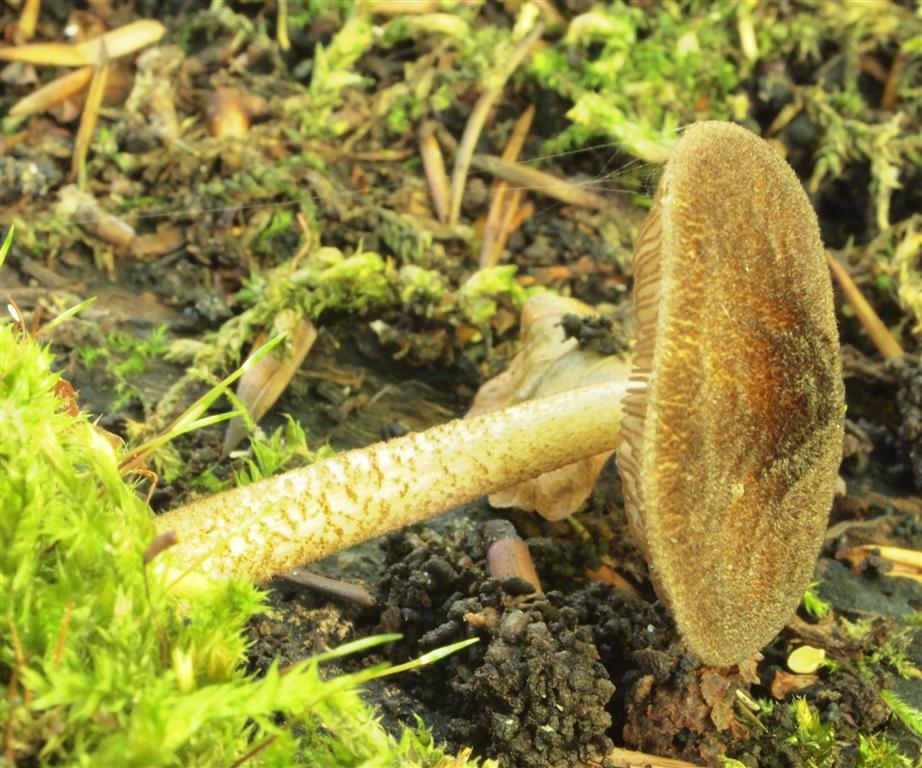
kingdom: Fungi
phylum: Basidiomycota
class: Agaricomycetes
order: Agaricales
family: Pluteaceae
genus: Pluteus
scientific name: Pluteus umbrosus
